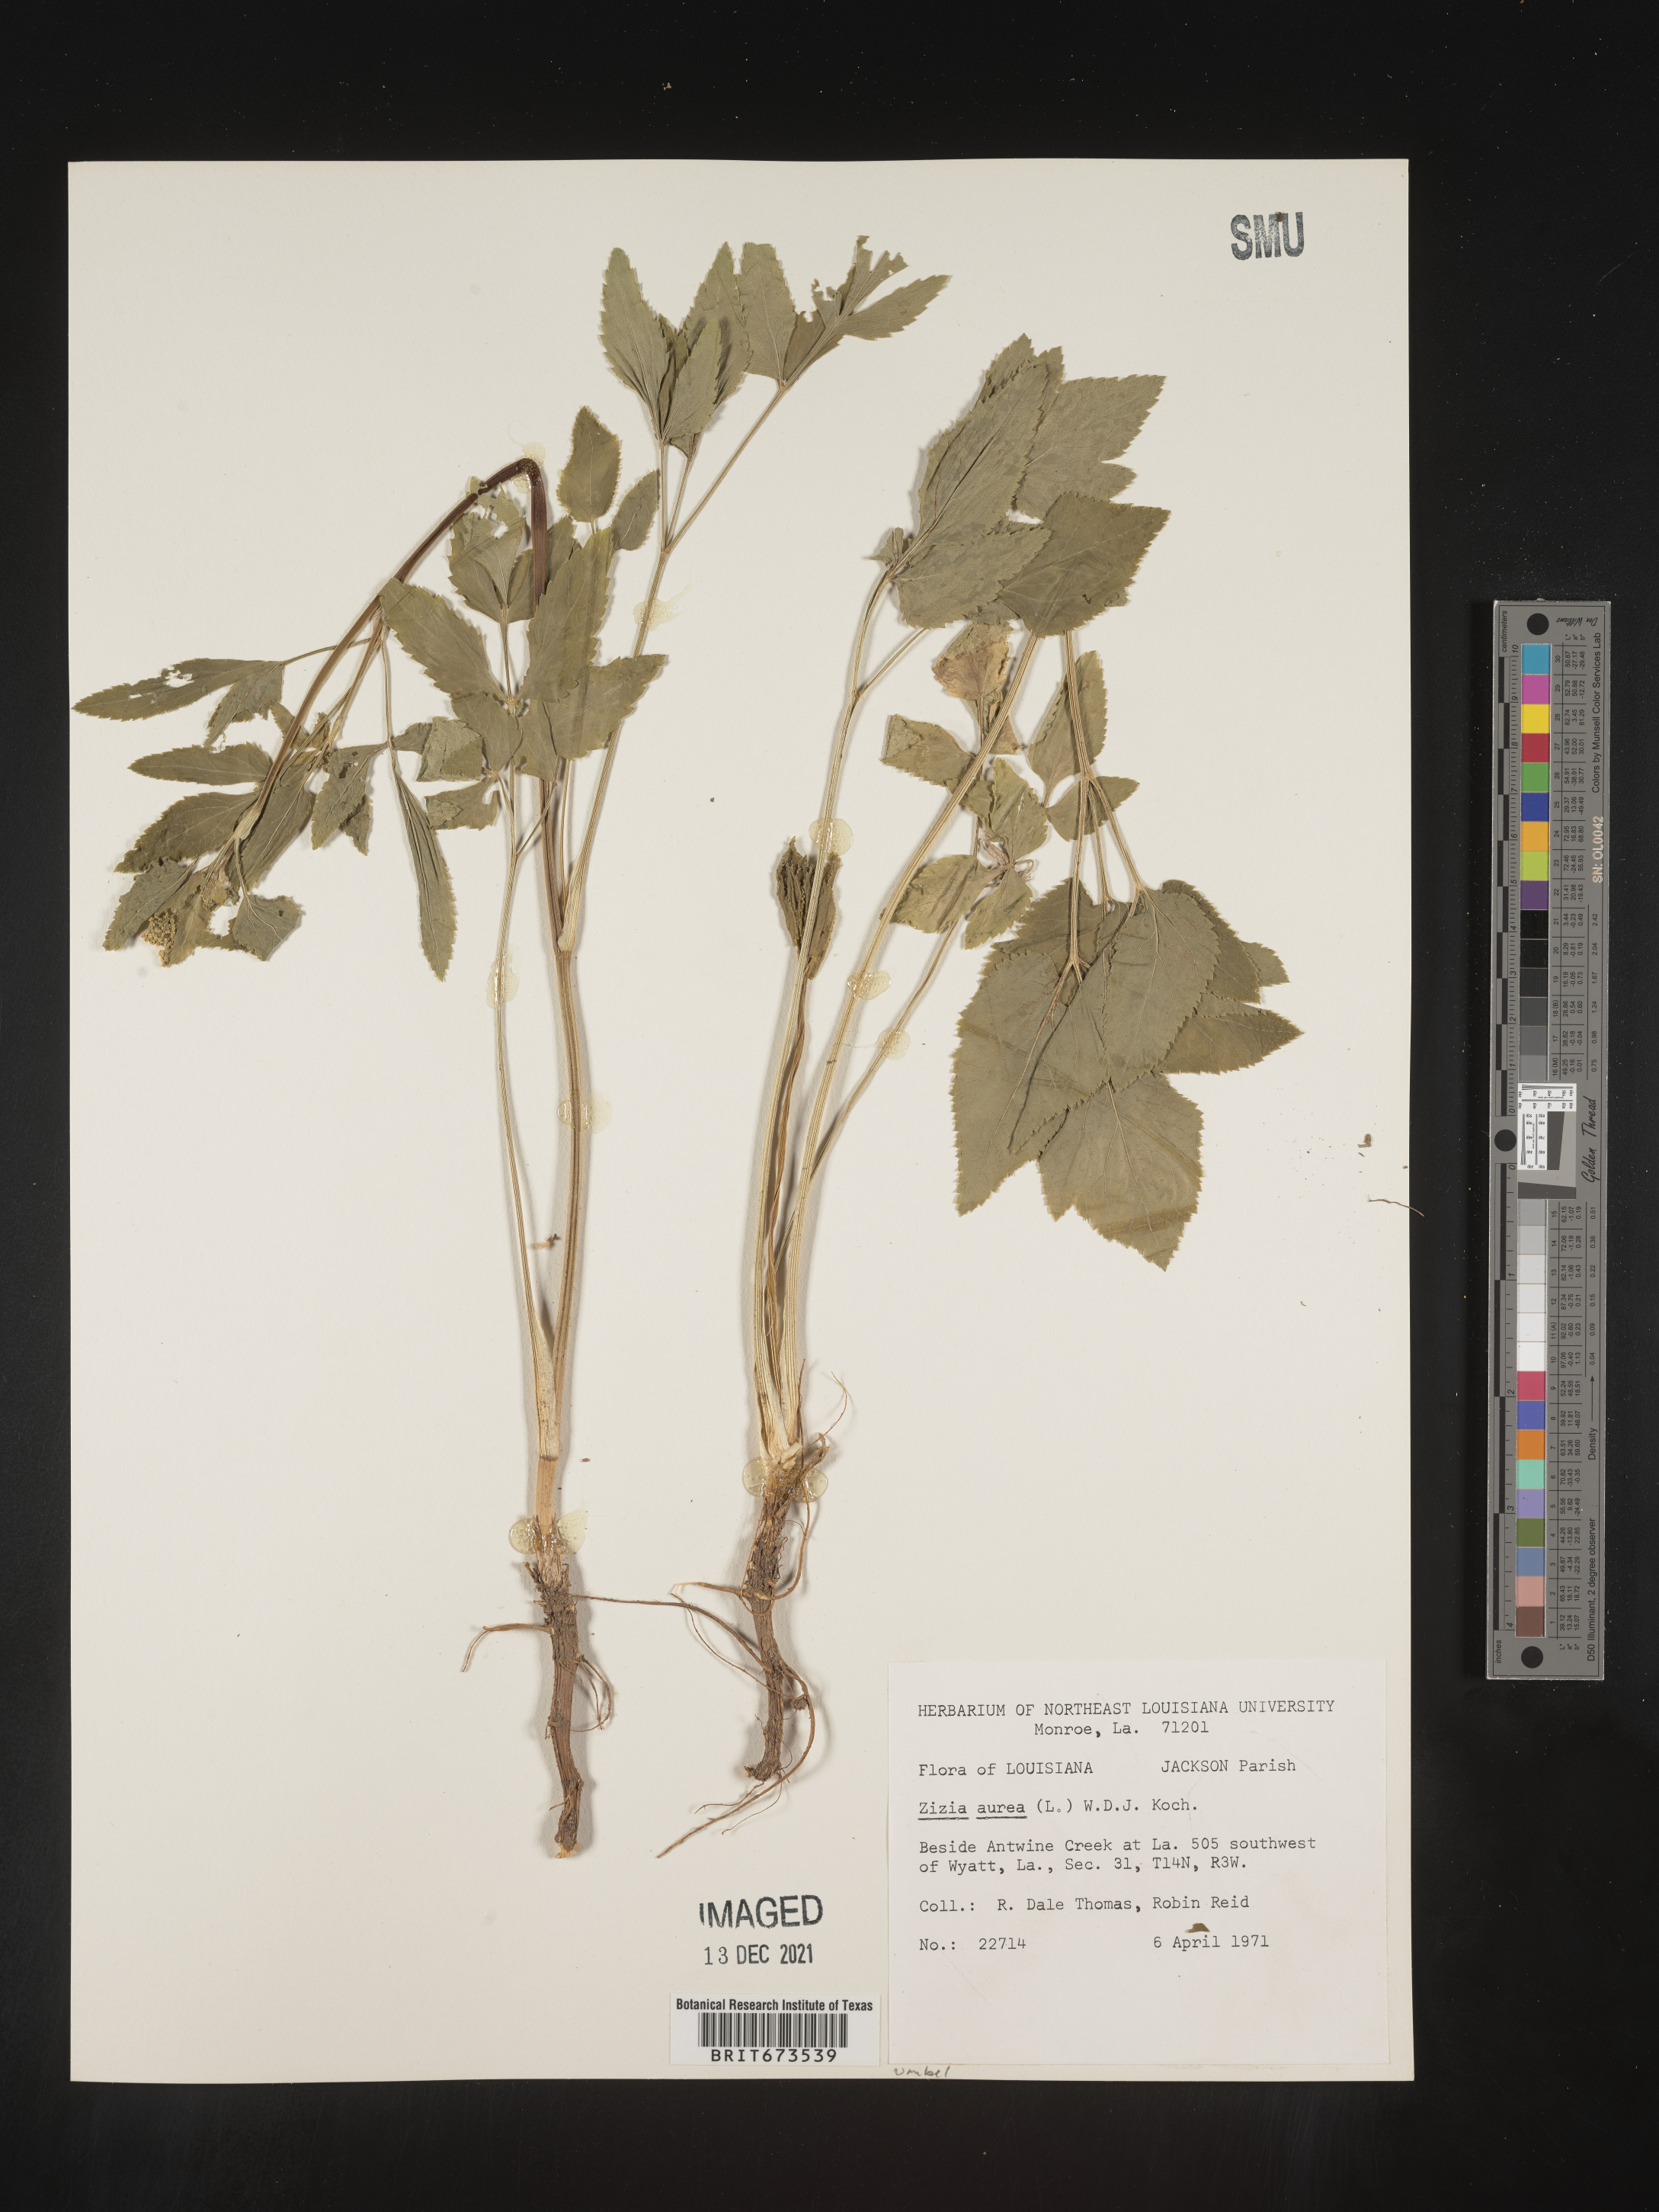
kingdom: Plantae
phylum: Tracheophyta
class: Magnoliopsida
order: Apiales
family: Apiaceae
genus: Zizia
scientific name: Zizia aurea
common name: Golden alexanders
